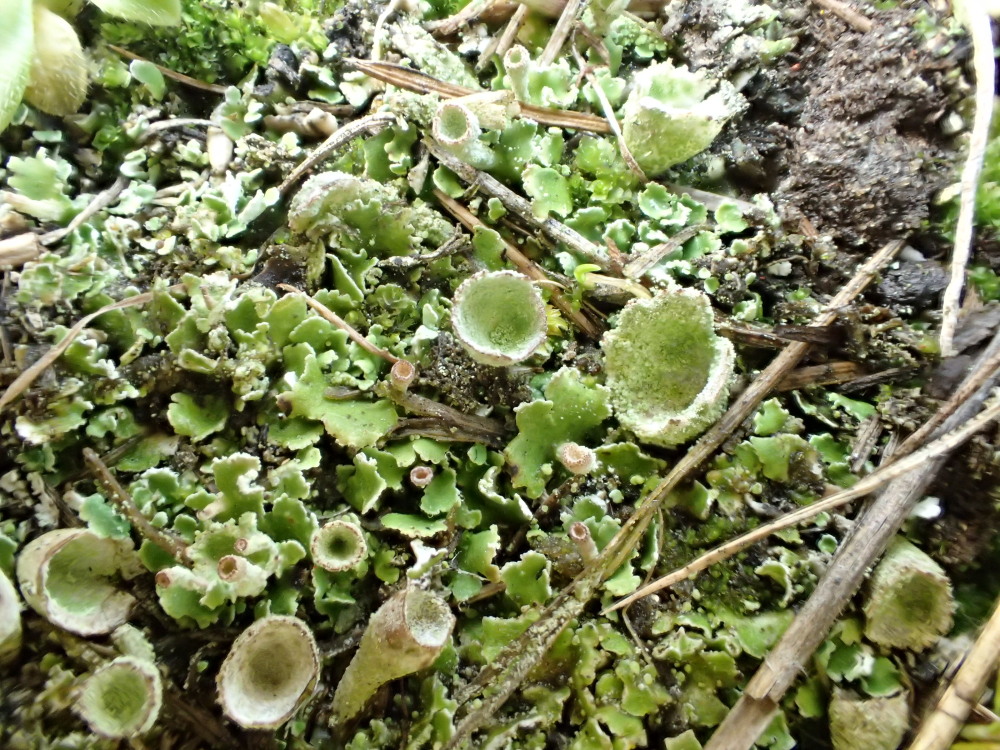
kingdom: Fungi
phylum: Ascomycota
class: Lecanoromycetes
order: Lecanorales
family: Cladoniaceae
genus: Cladonia
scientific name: Cladonia humilis
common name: lav bægerlav
